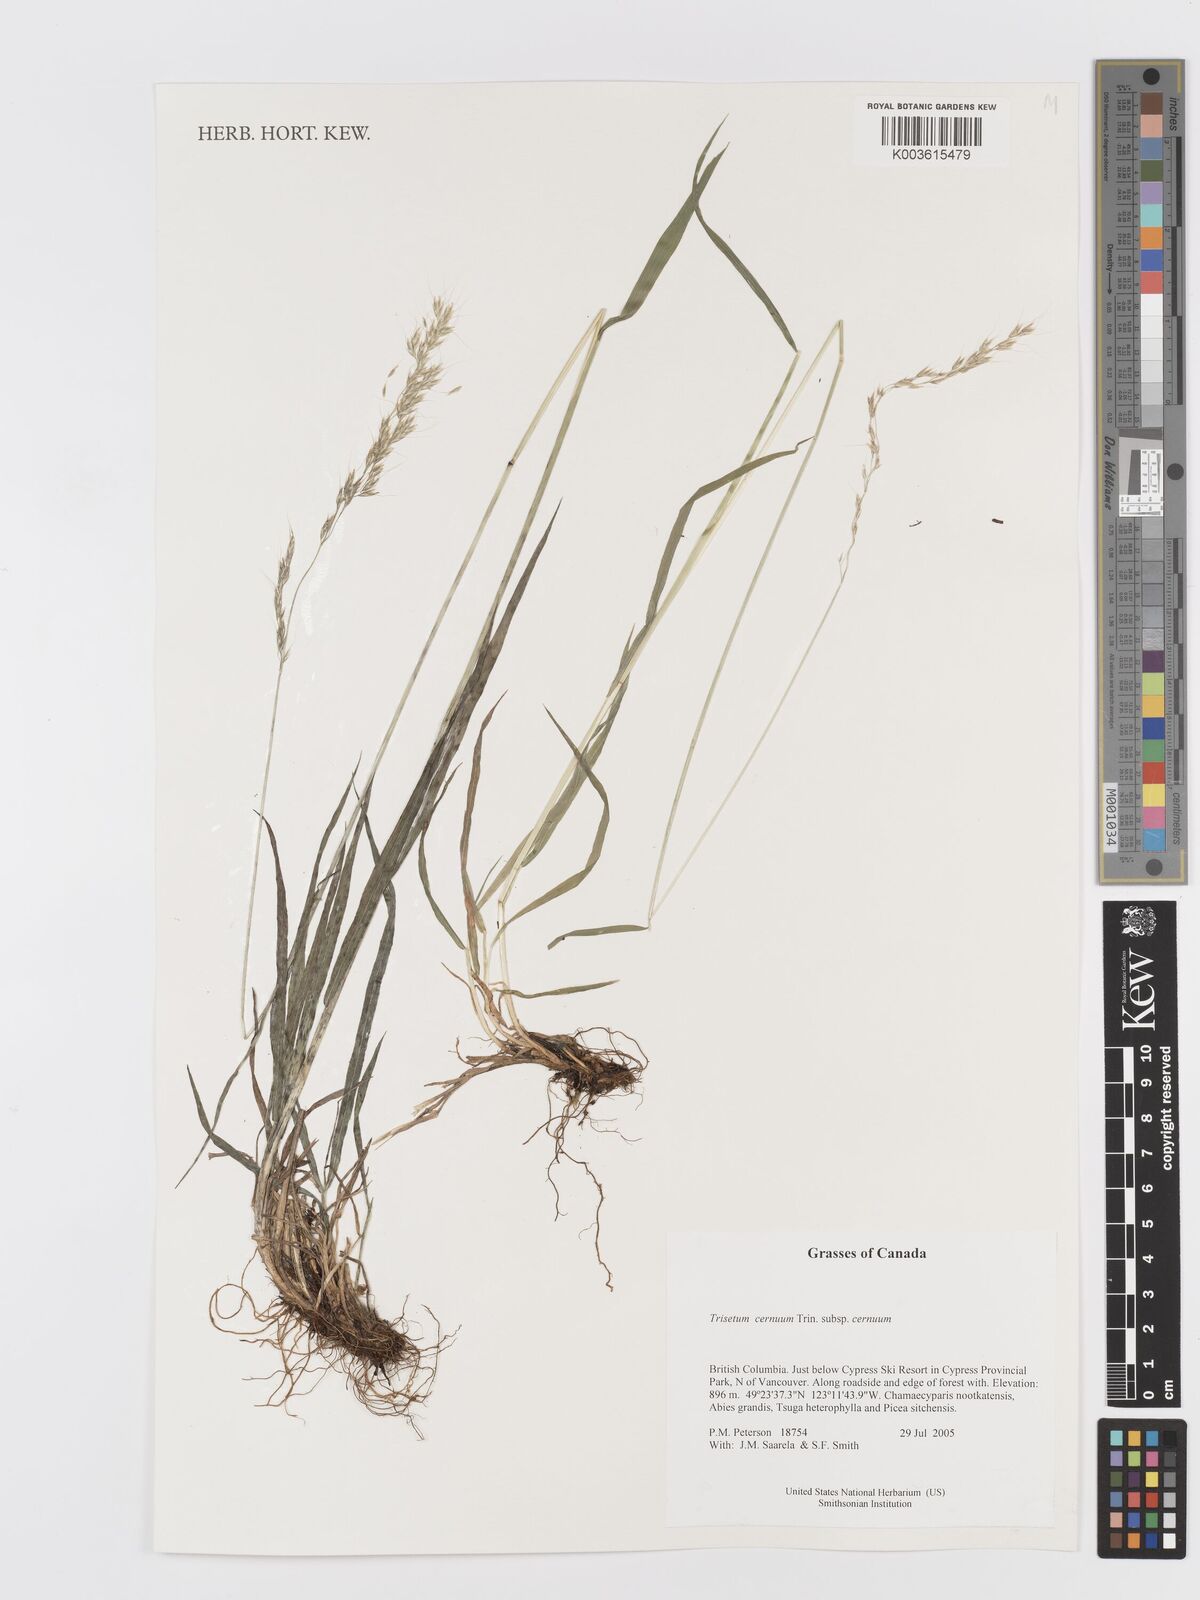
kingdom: Plantae
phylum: Tracheophyta
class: Liliopsida
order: Poales
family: Poaceae
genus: Graphephorum
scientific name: Graphephorum cernuum
